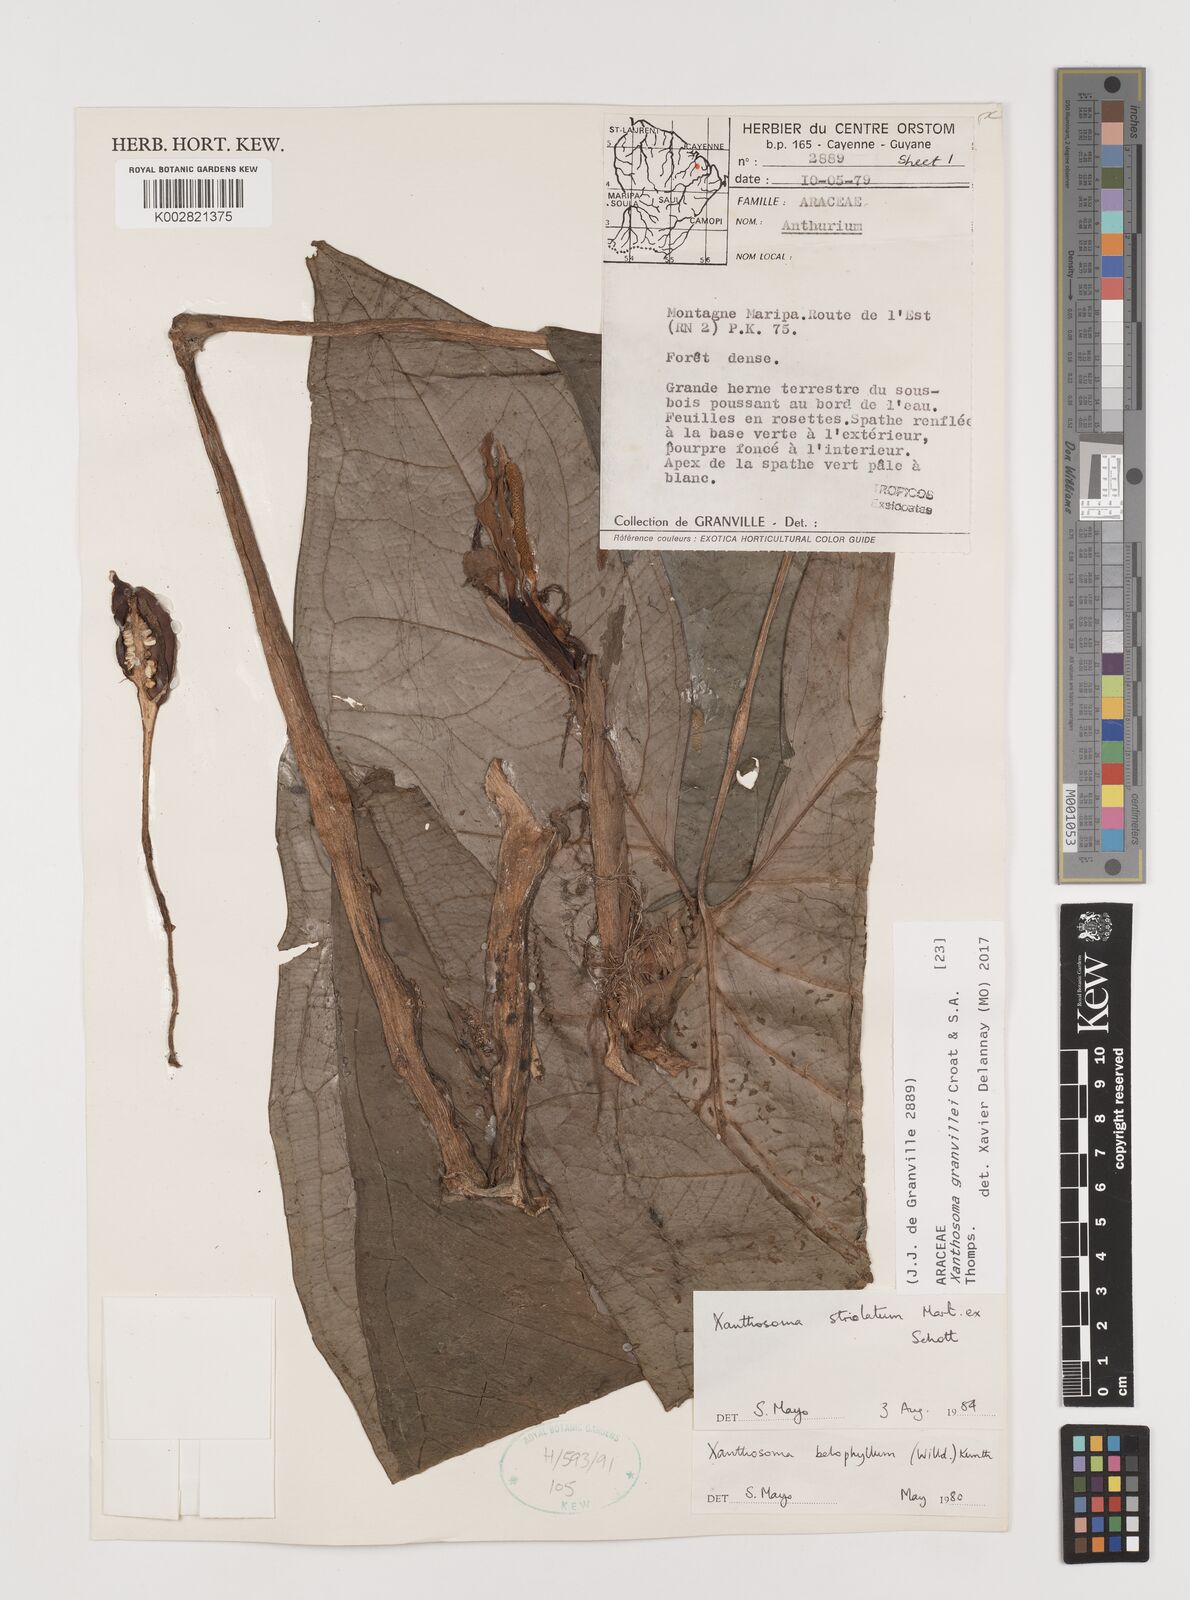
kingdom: Plantae
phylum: Tracheophyta
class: Liliopsida
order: Alismatales
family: Araceae
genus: Xanthosoma
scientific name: Xanthosoma granvillei
